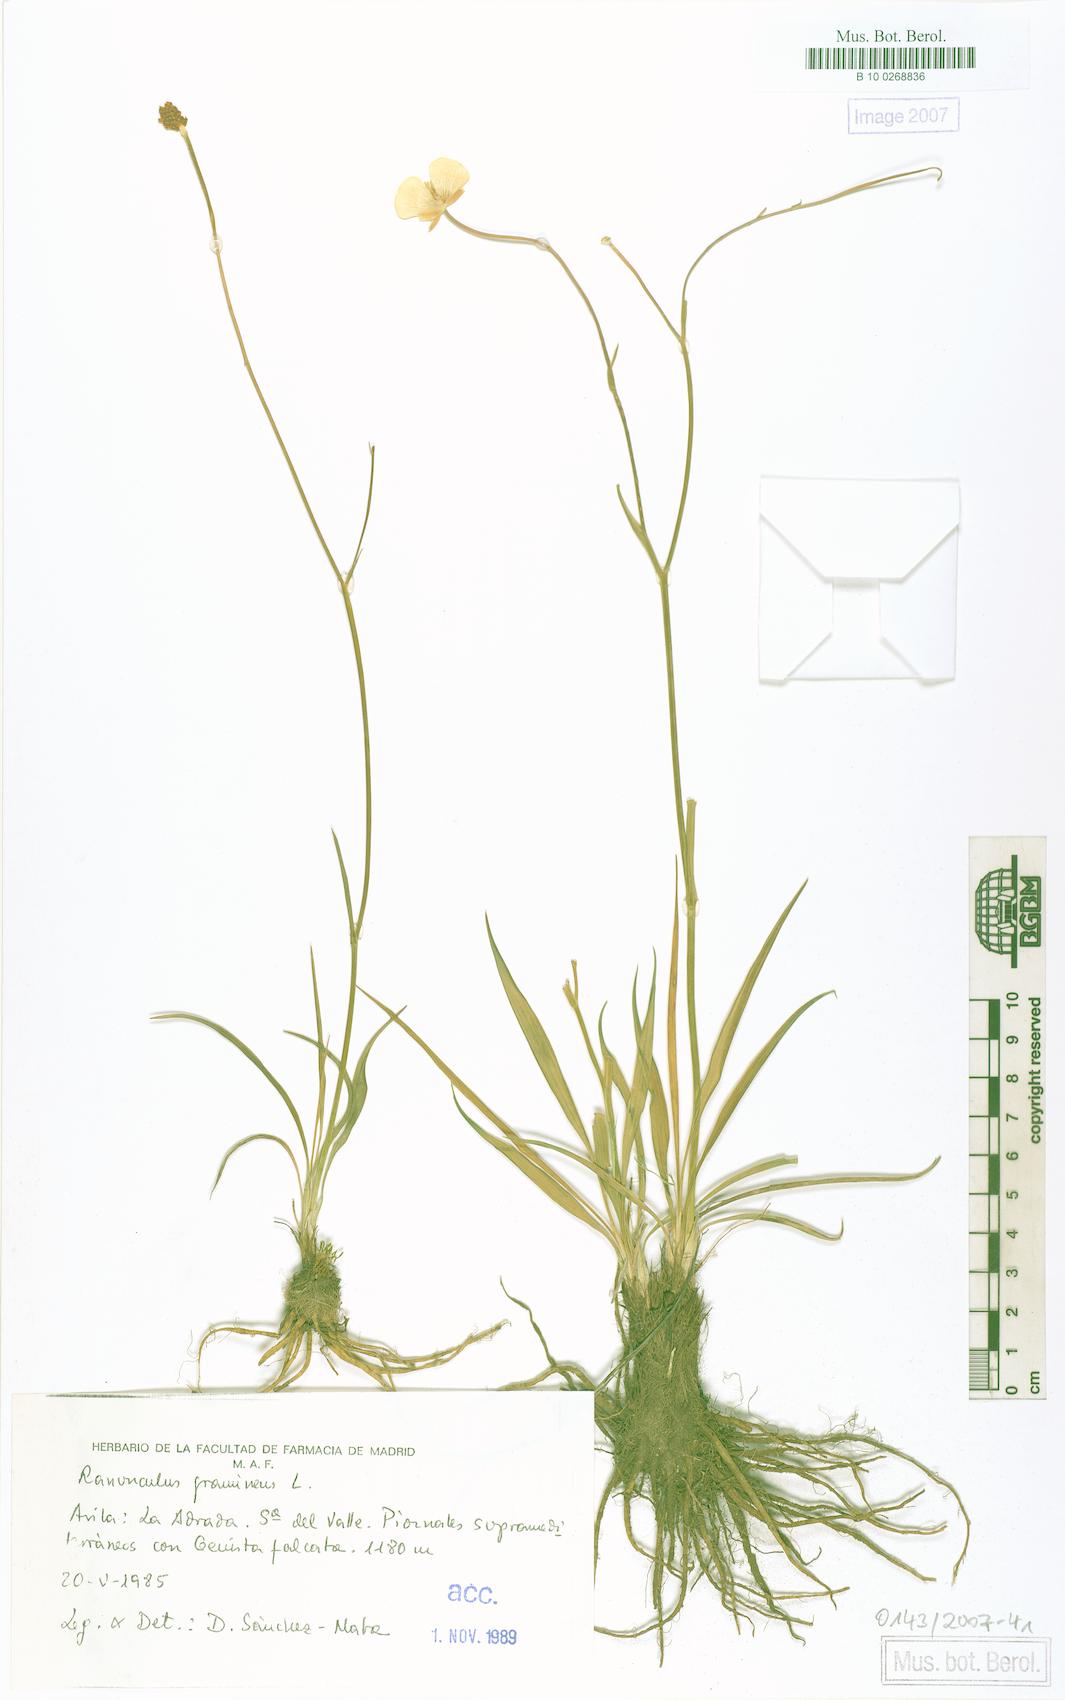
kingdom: Plantae
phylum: Tracheophyta
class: Magnoliopsida
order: Ranunculales
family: Ranunculaceae
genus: Ranunculus
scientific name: Ranunculus gramineus
